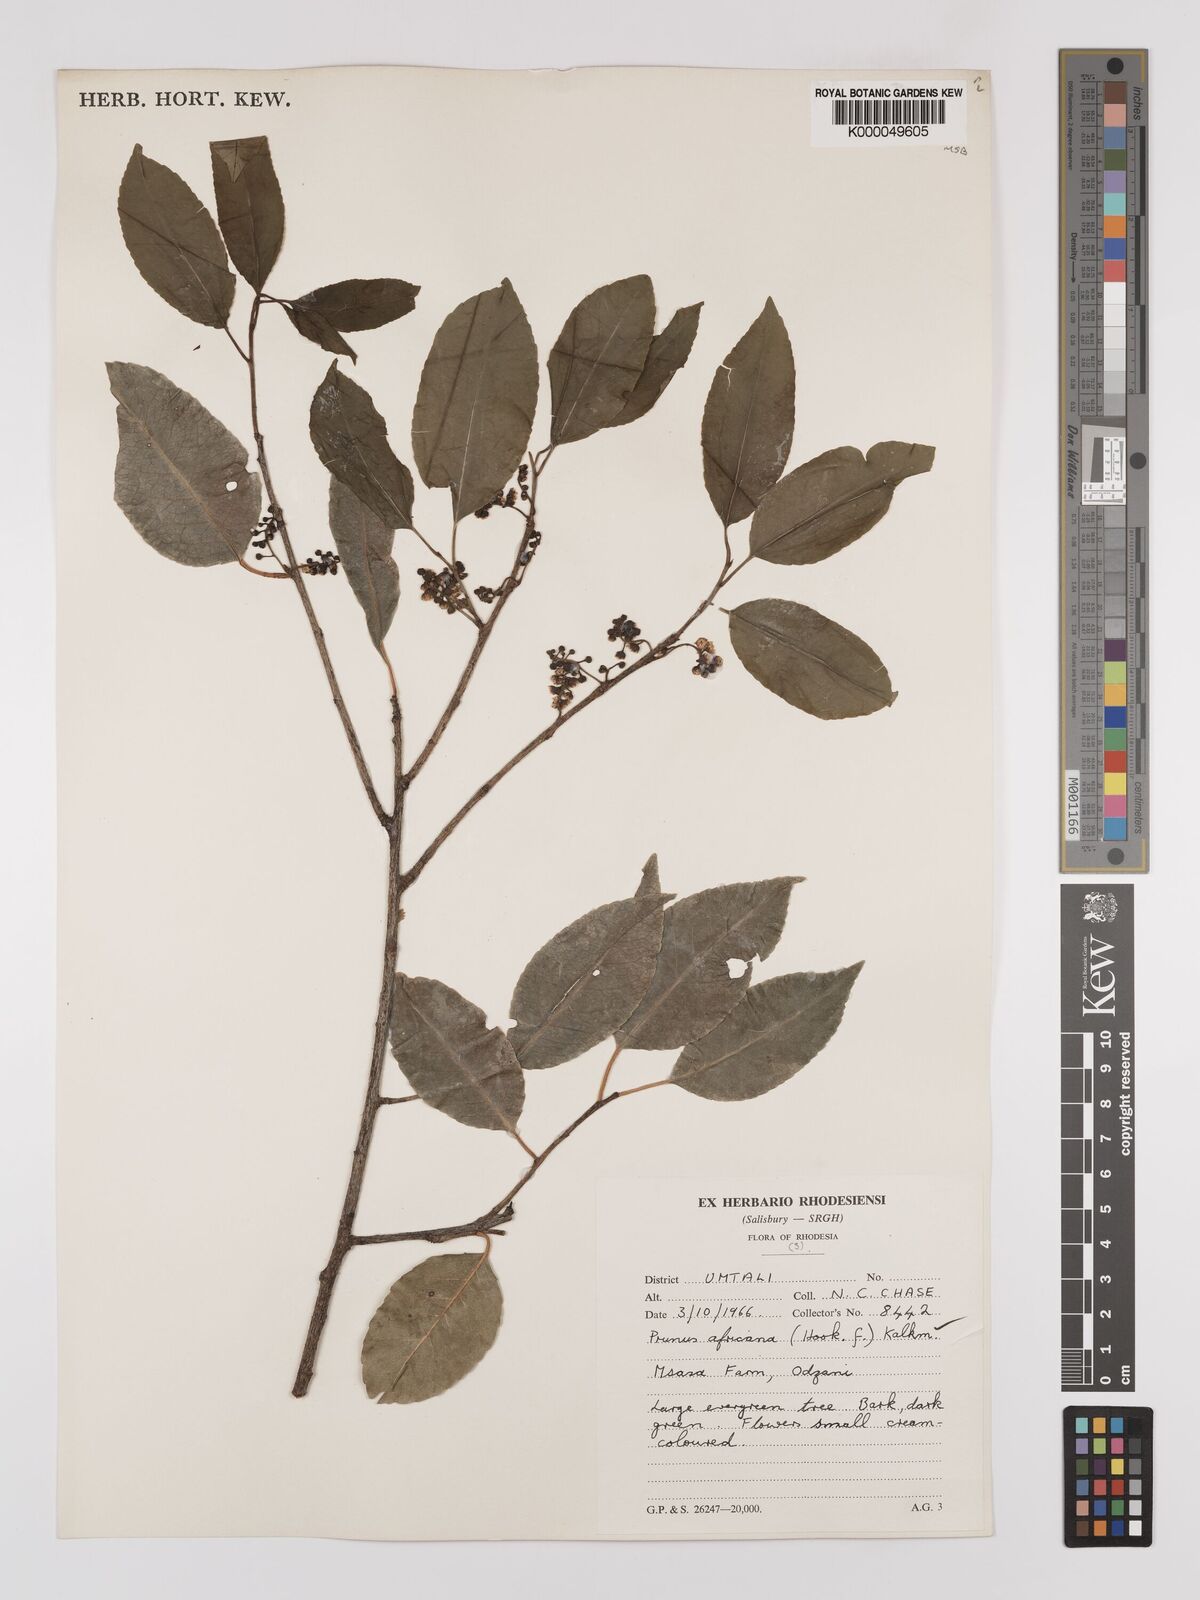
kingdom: Plantae
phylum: Tracheophyta
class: Magnoliopsida
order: Rosales
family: Rosaceae
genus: Prunus
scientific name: Prunus africana
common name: African cherry
